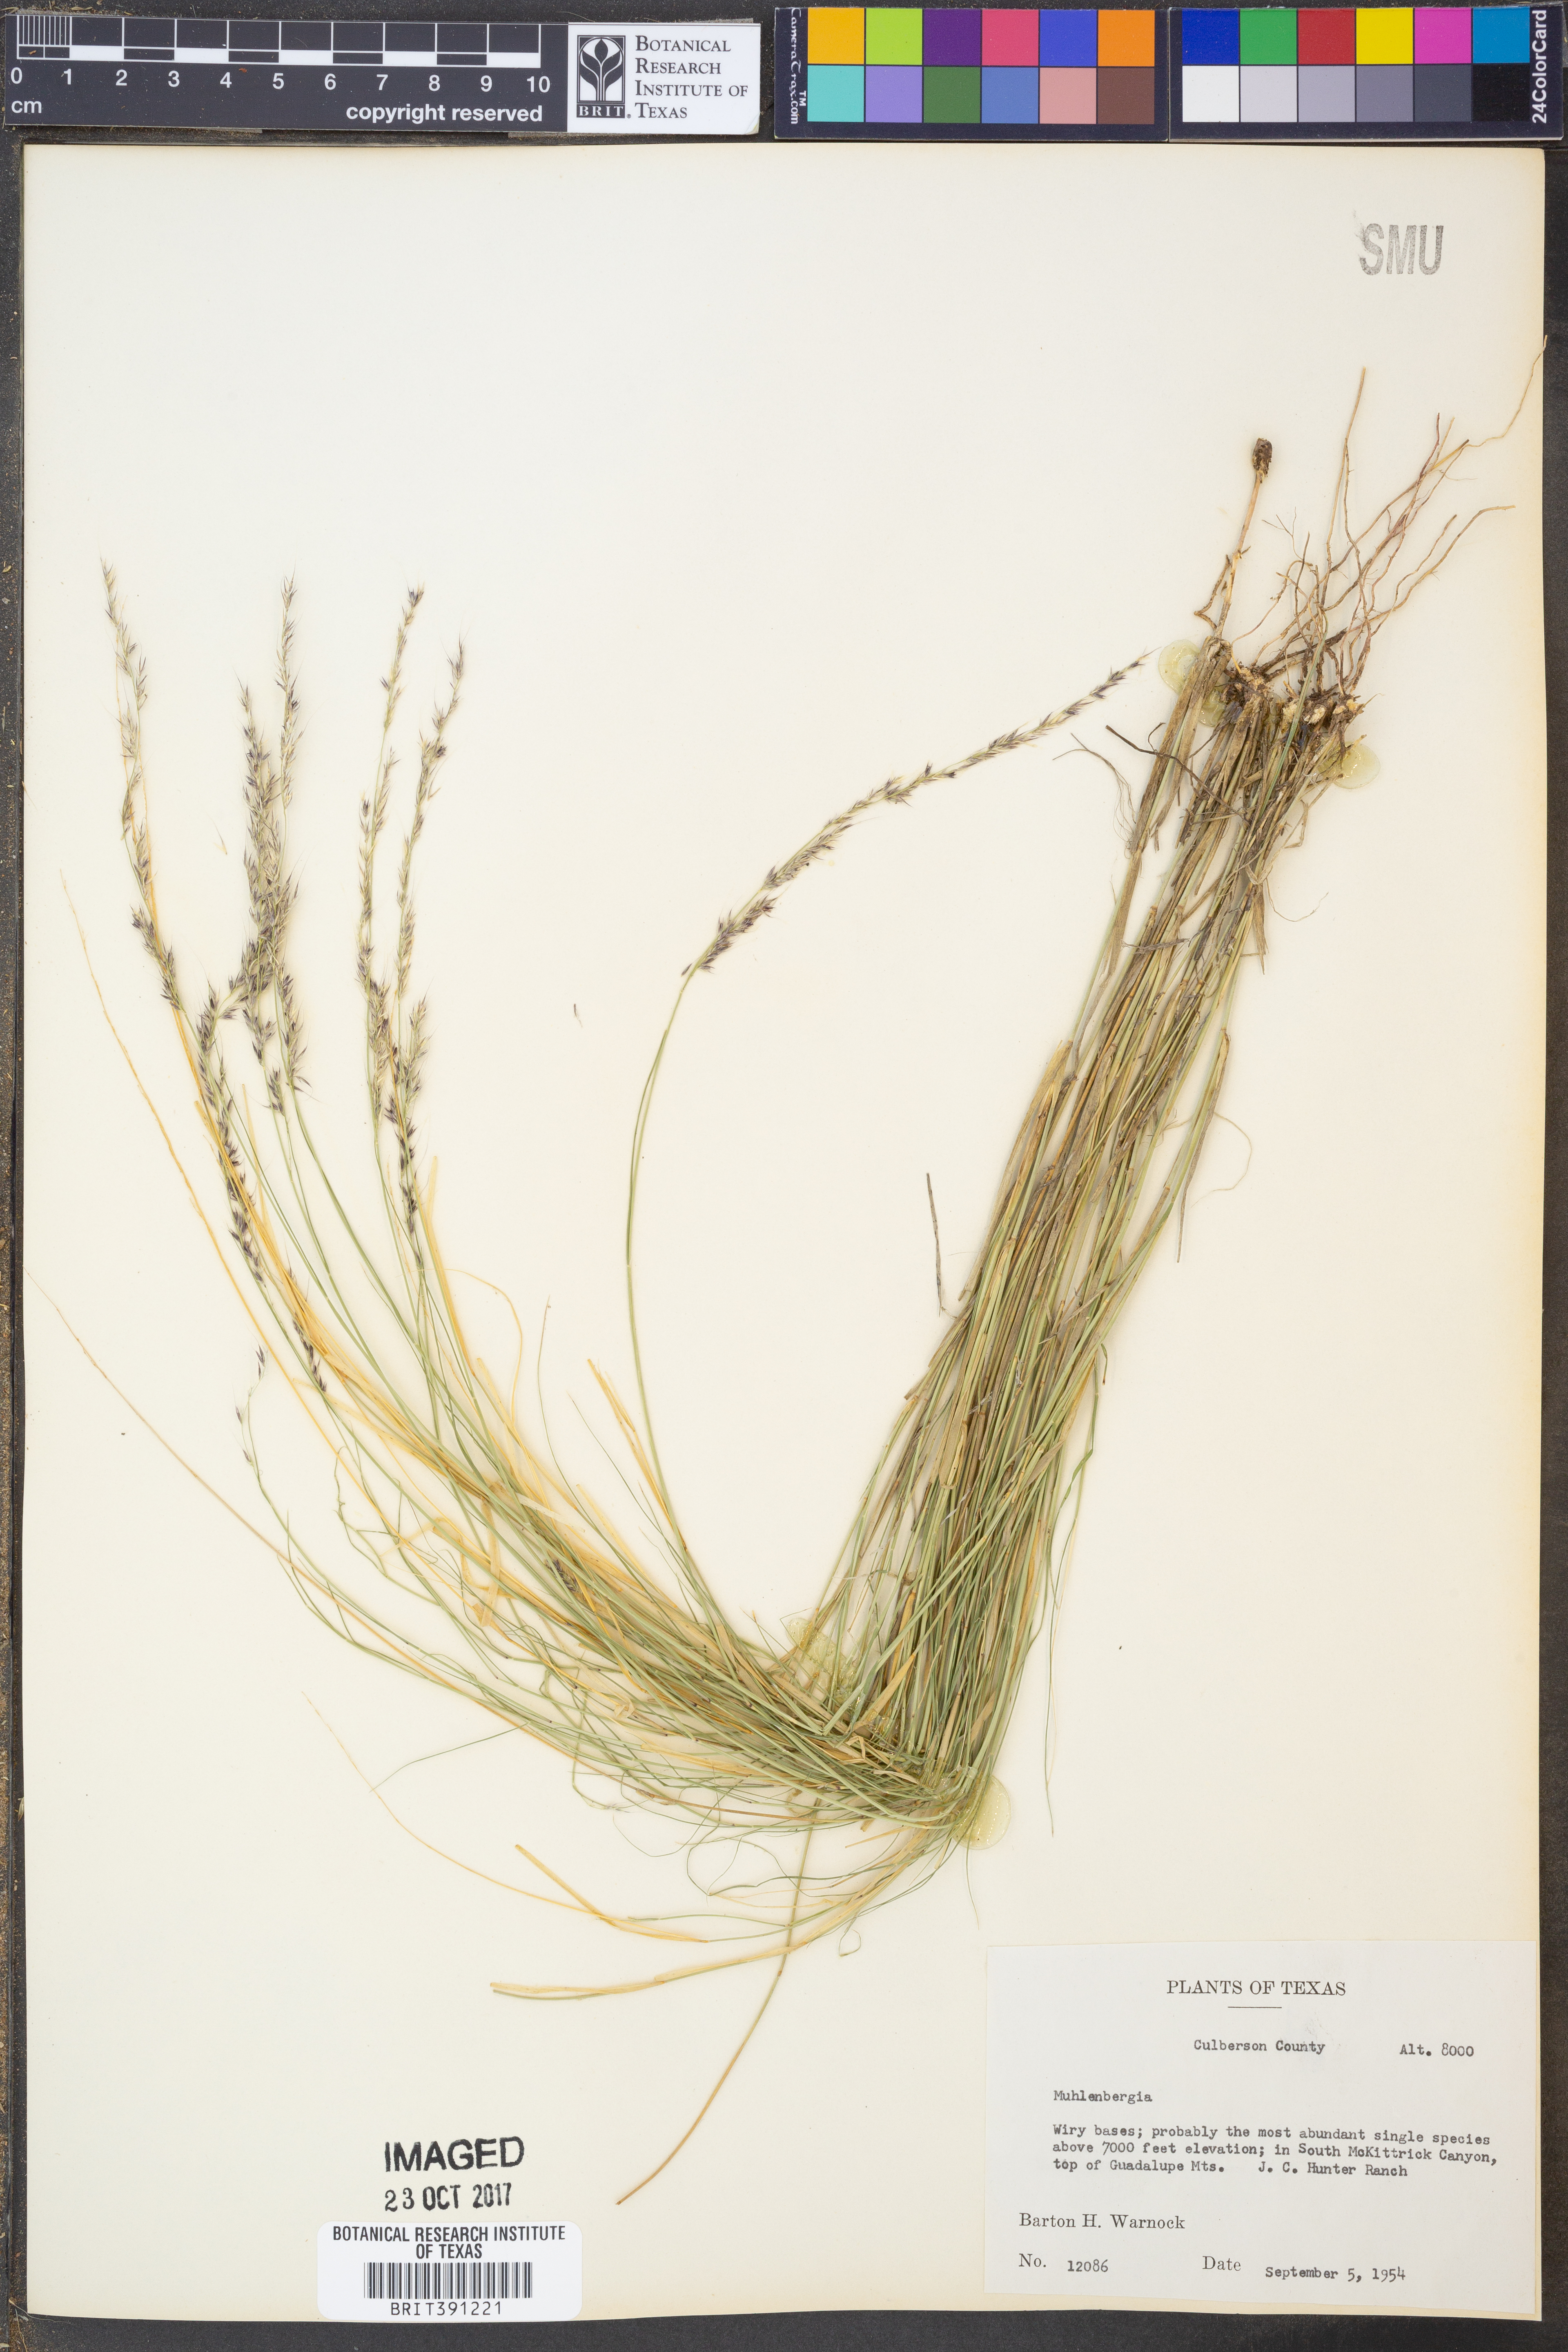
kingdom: Plantae
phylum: Tracheophyta
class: Liliopsida
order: Poales
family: Poaceae
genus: Muhlenbergia
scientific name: Muhlenbergia
